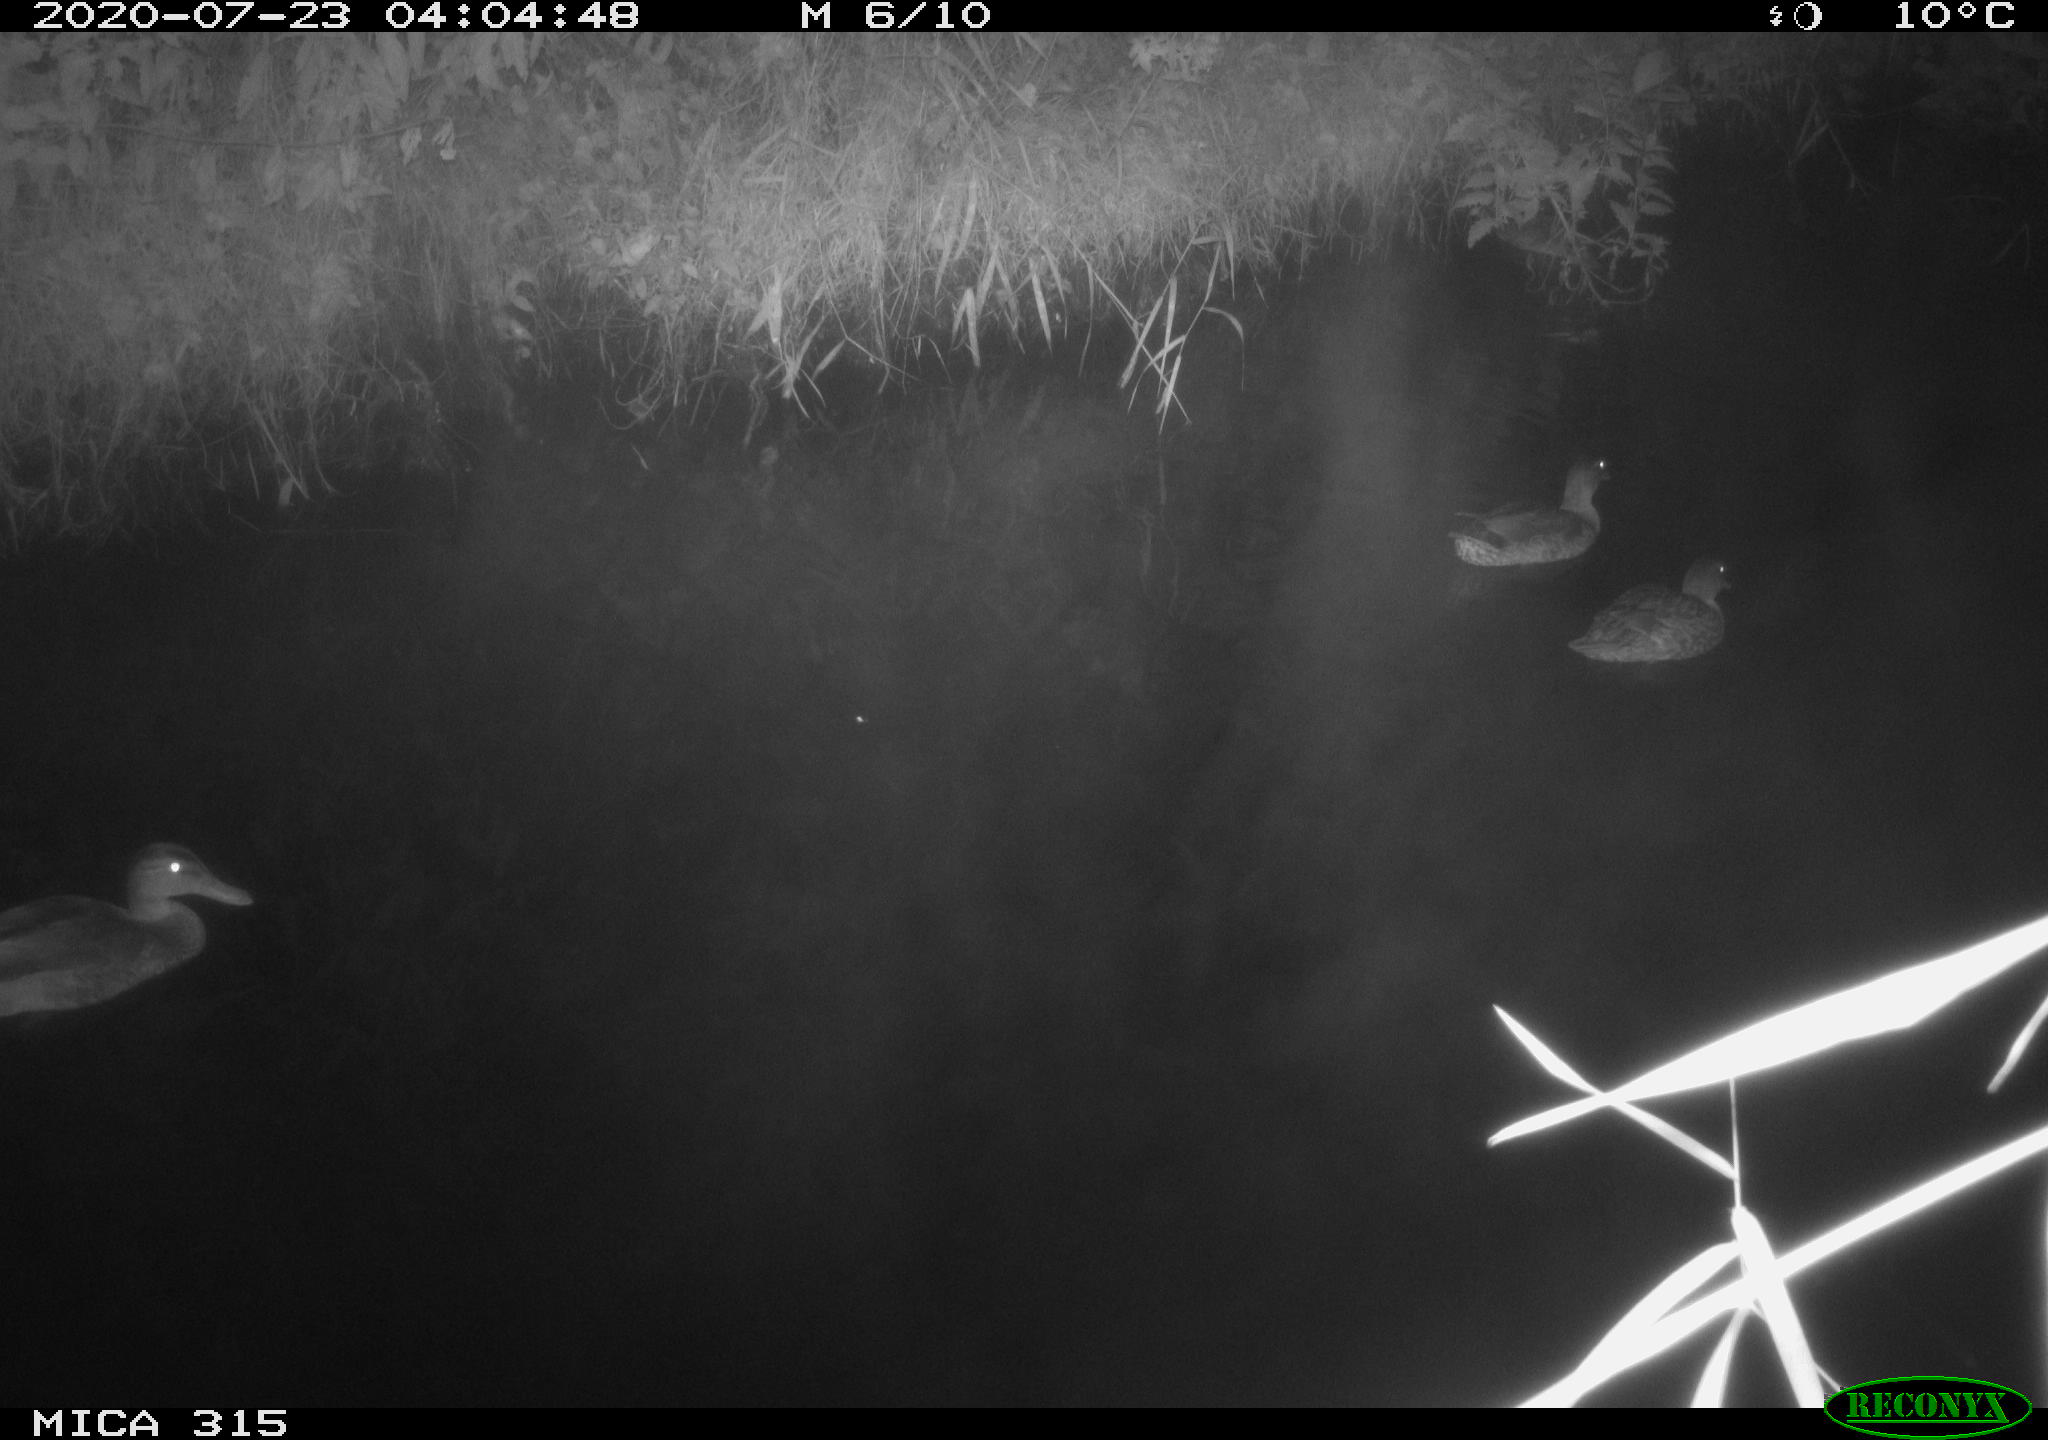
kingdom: Animalia
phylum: Chordata
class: Aves
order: Anseriformes
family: Anatidae
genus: Anas
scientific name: Anas platyrhynchos
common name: Mallard
